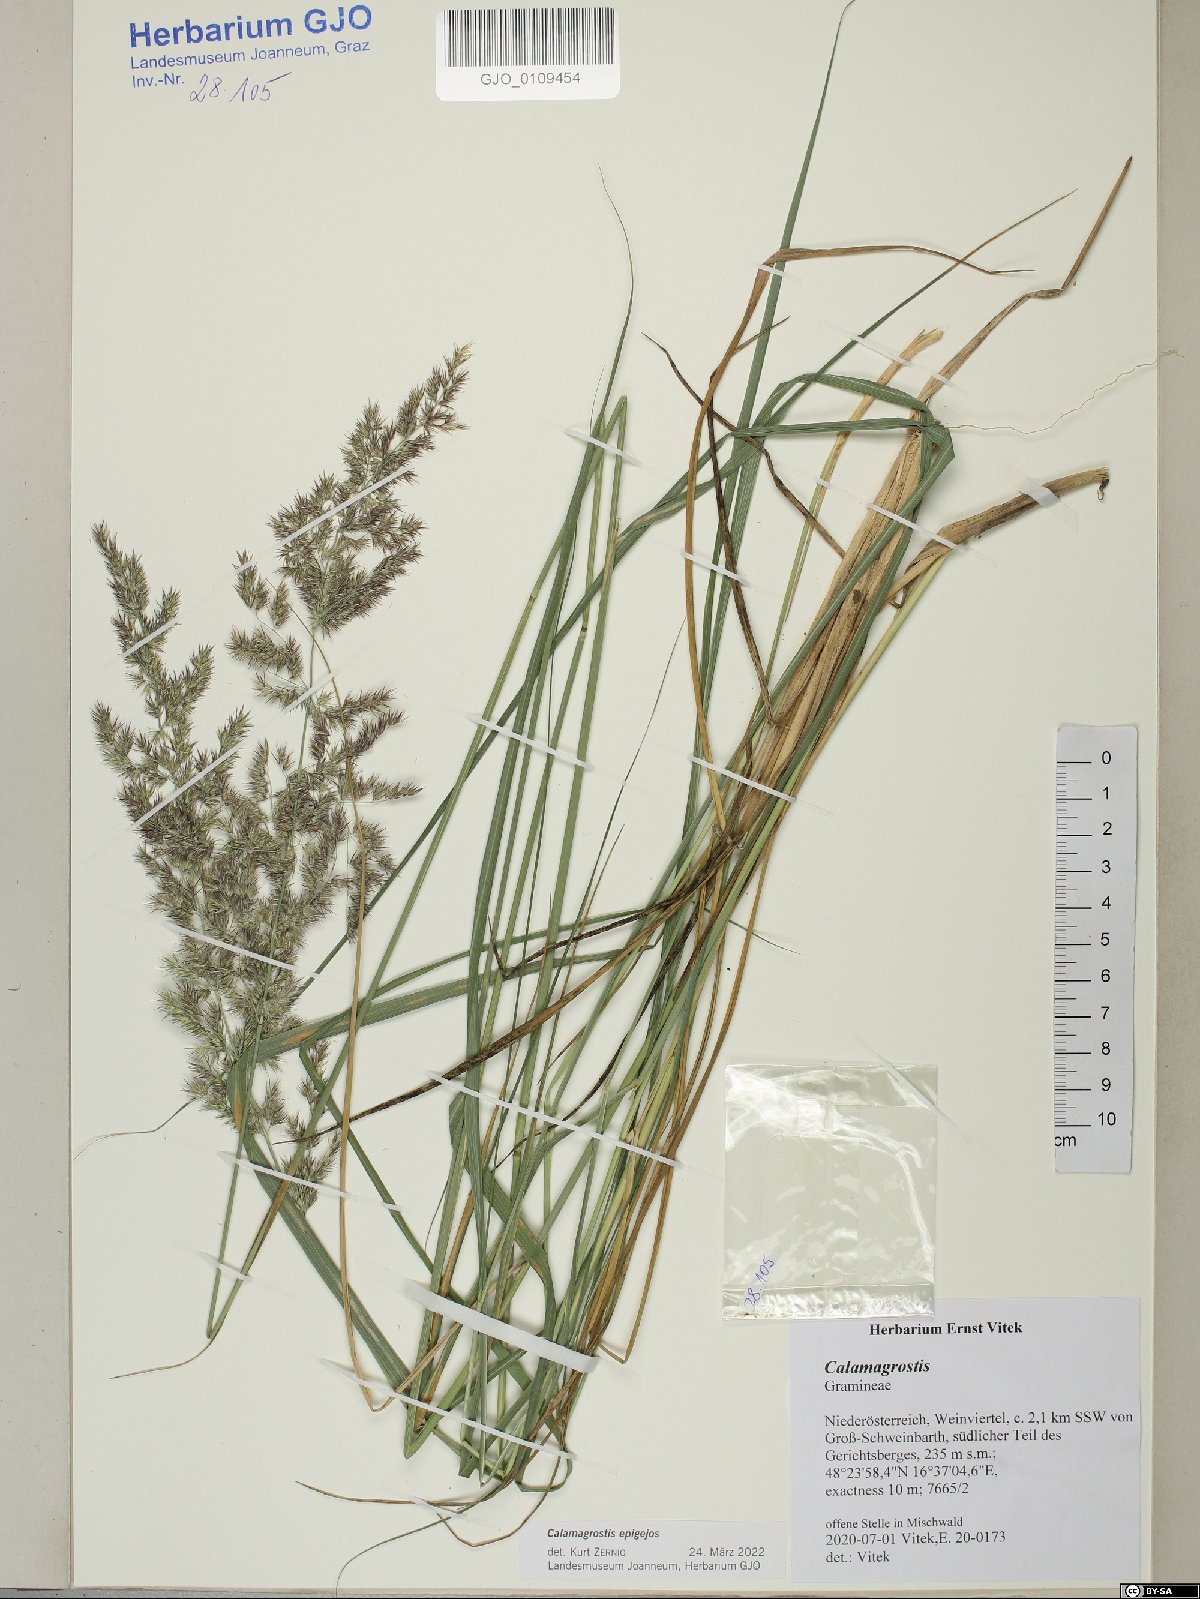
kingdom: Plantae
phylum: Tracheophyta
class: Liliopsida
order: Poales
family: Poaceae
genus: Calamagrostis
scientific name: Calamagrostis epigejos
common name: Wood small-reed
